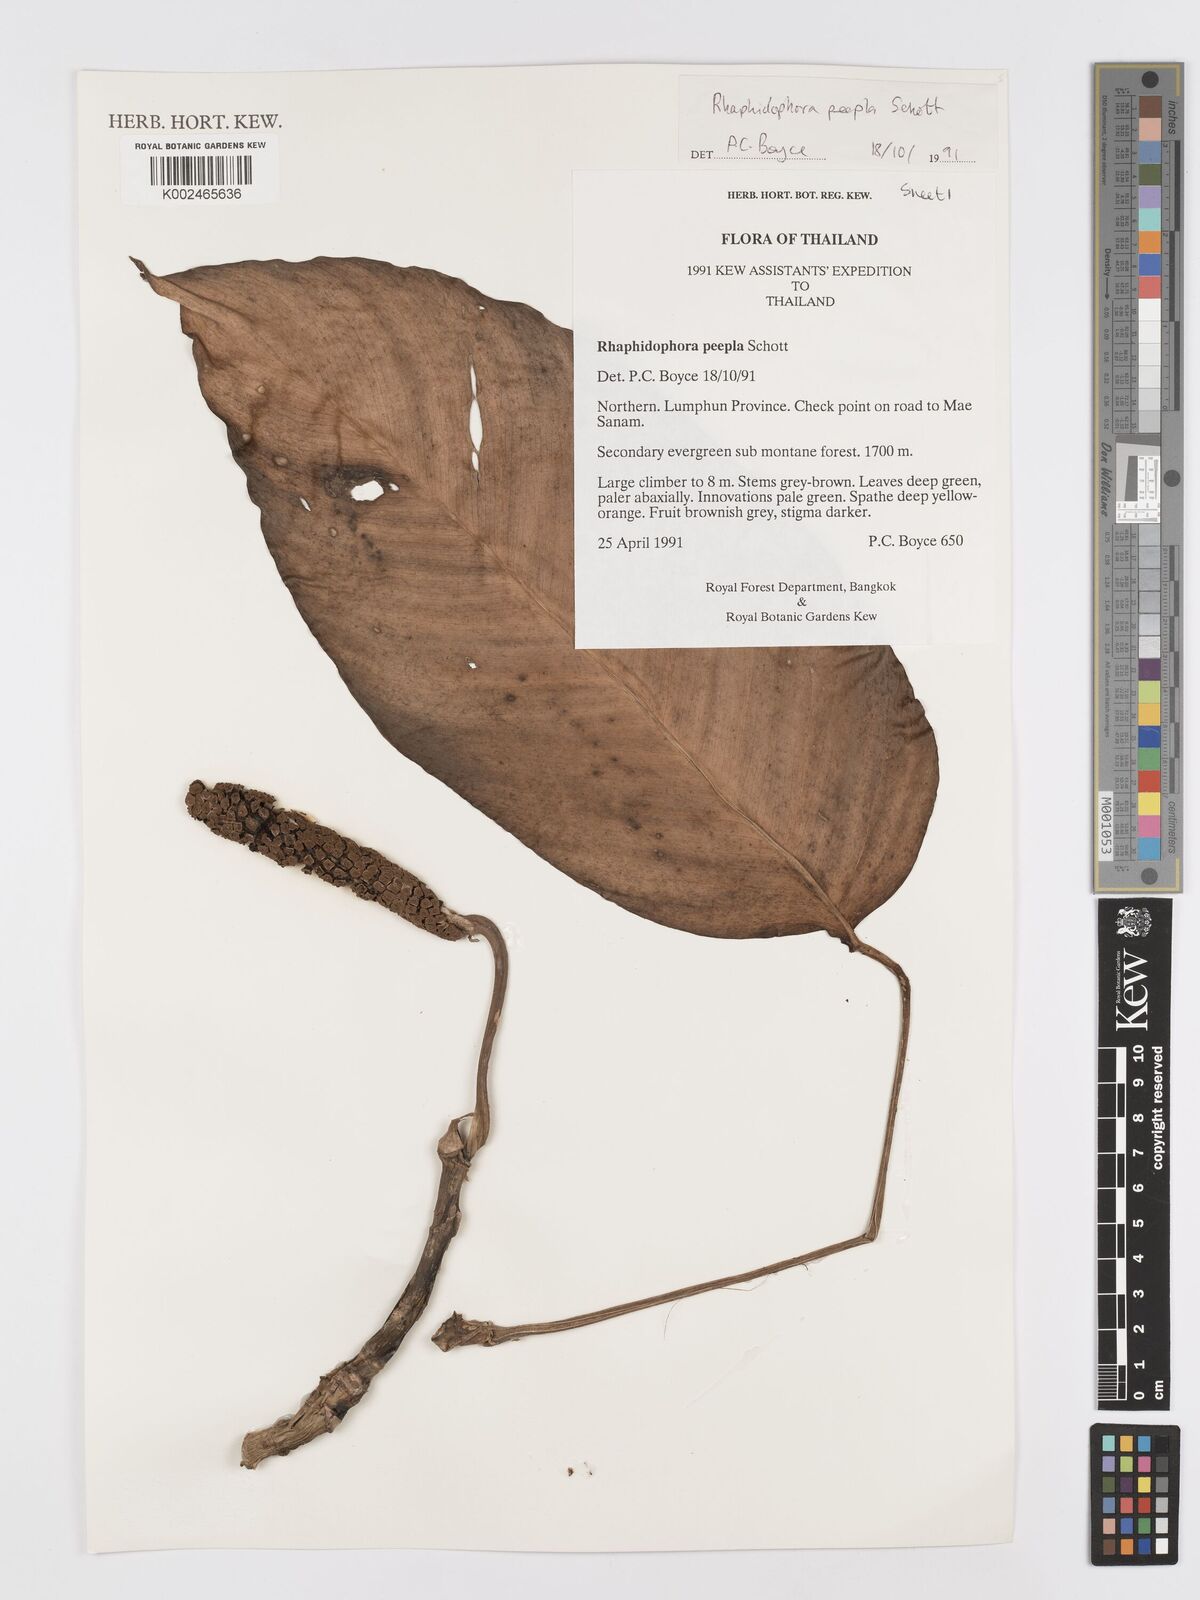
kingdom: Plantae
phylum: Tracheophyta
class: Liliopsida
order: Alismatales
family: Araceae
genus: Rhaphidophora
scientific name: Rhaphidophora peepla
